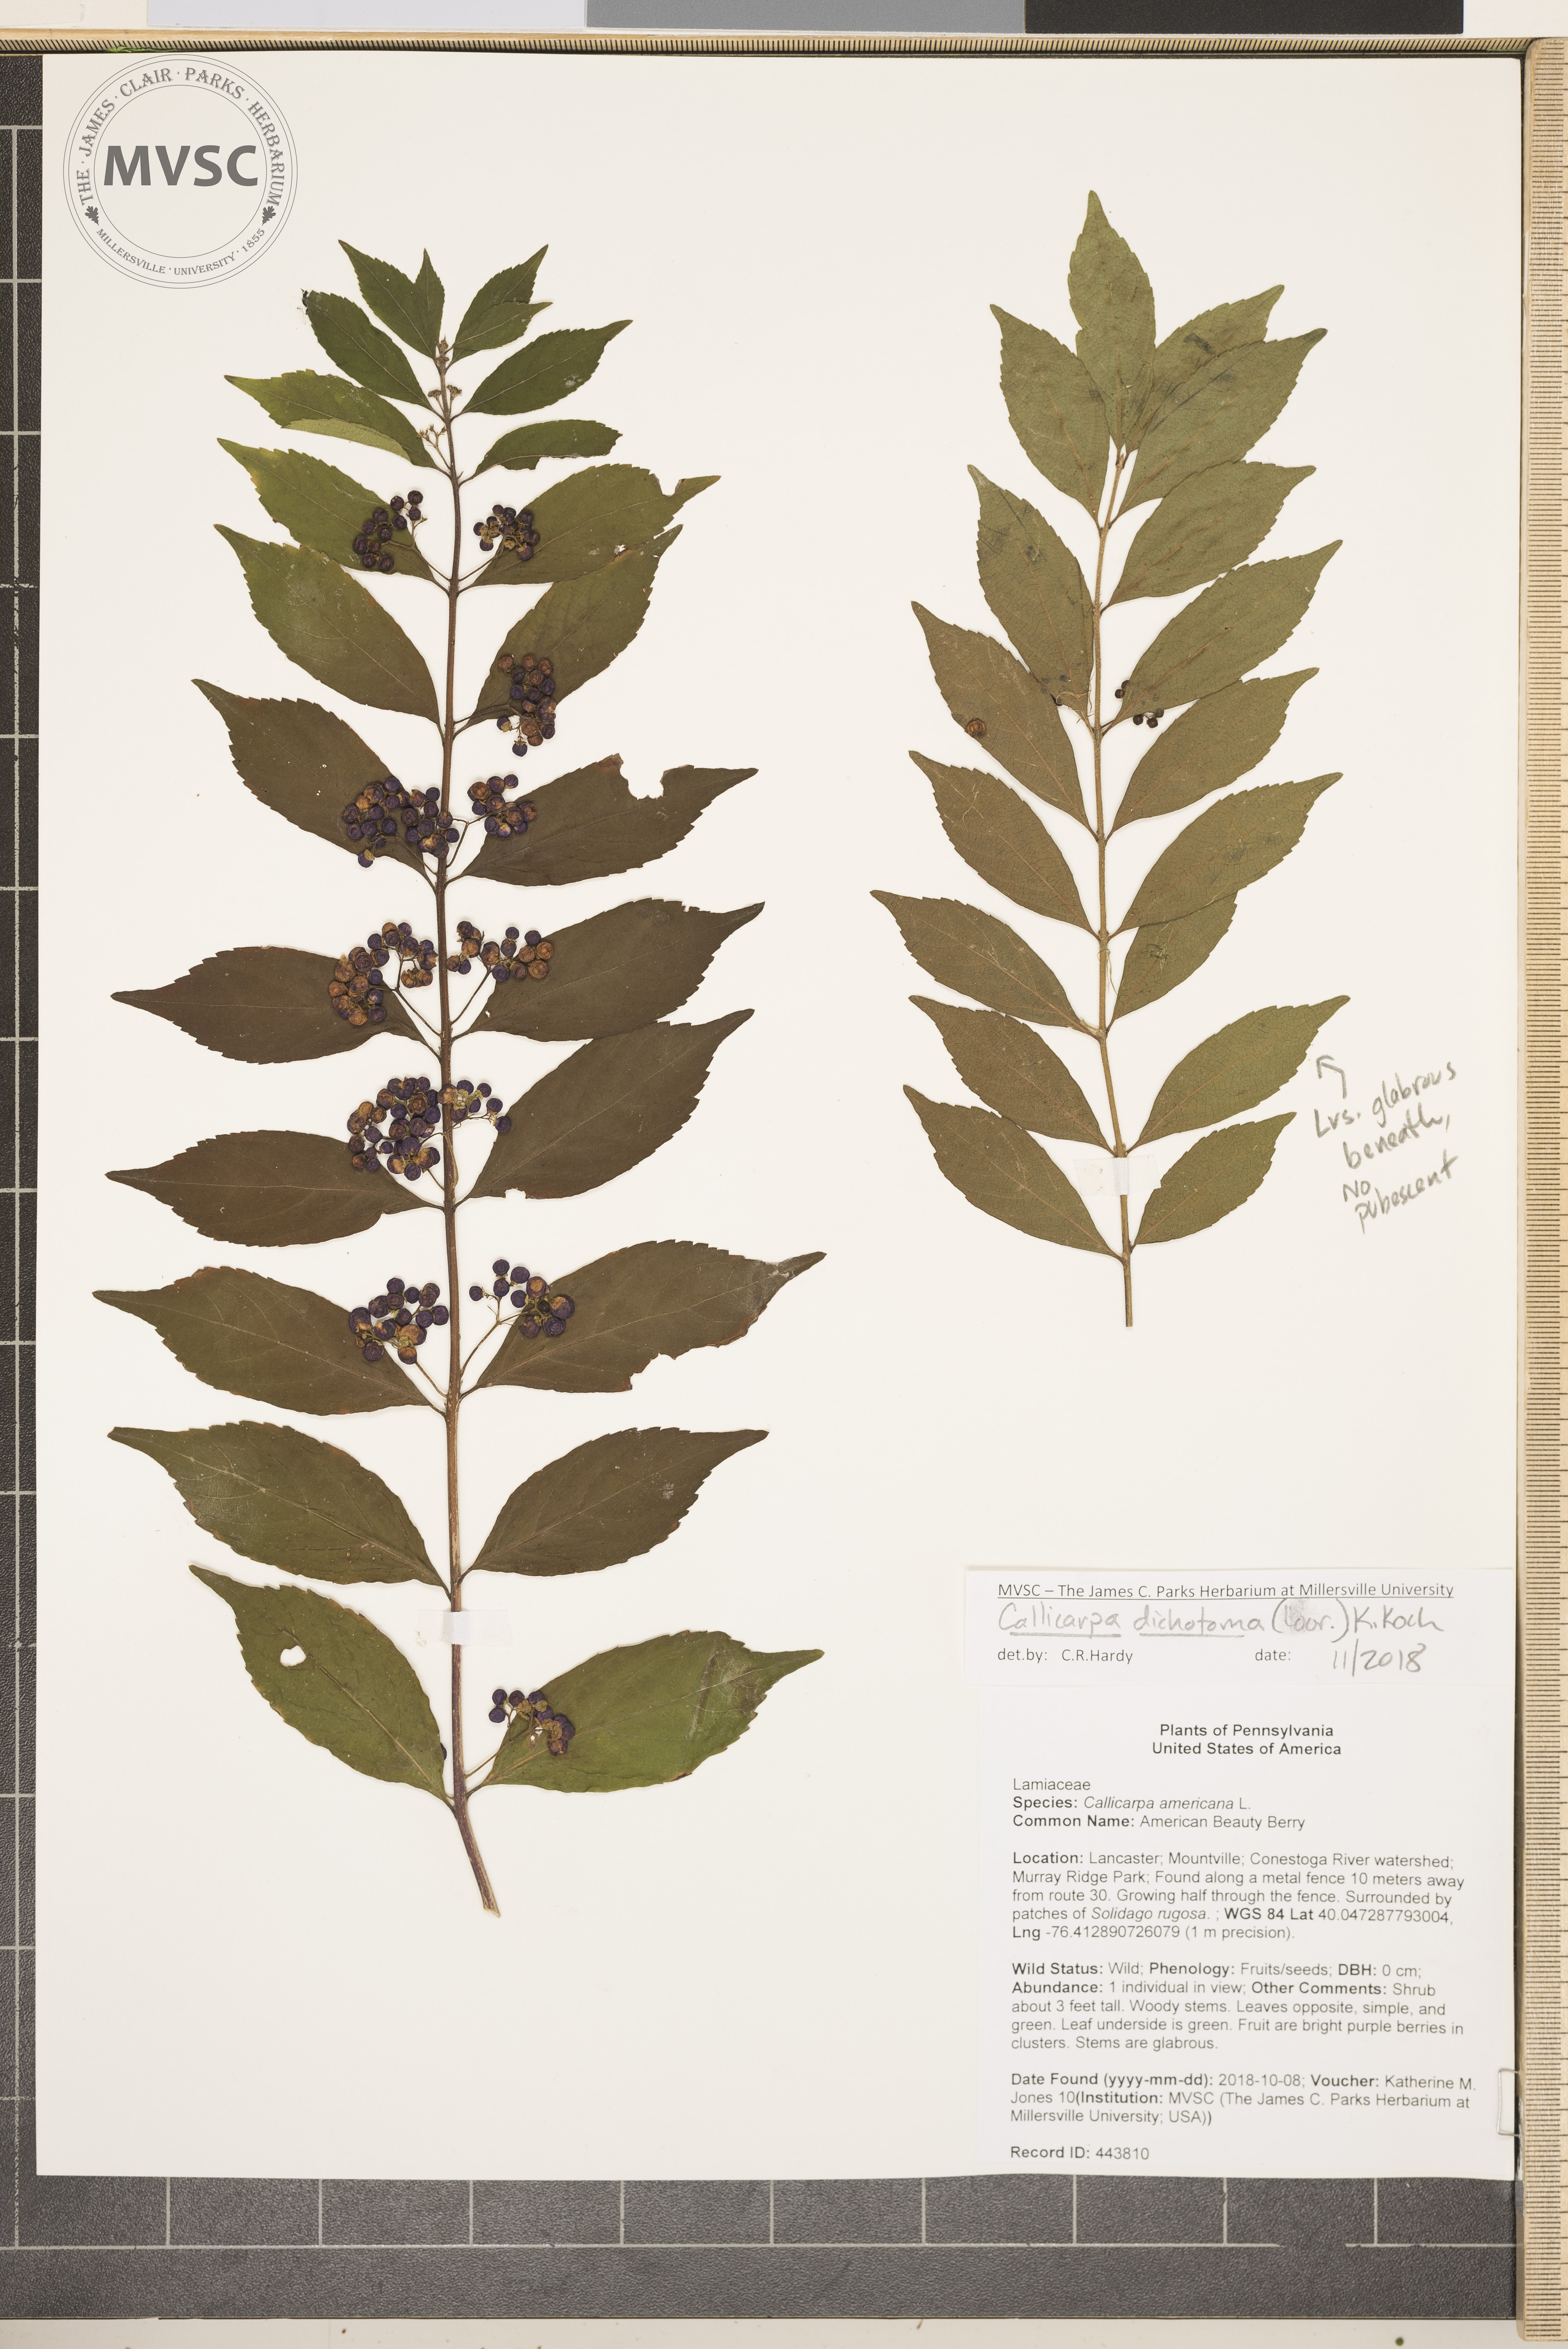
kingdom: Plantae
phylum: Tracheophyta
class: Magnoliopsida
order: Lamiales
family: Lamiaceae
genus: Callicarpa
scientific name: Callicarpa dichotoma
